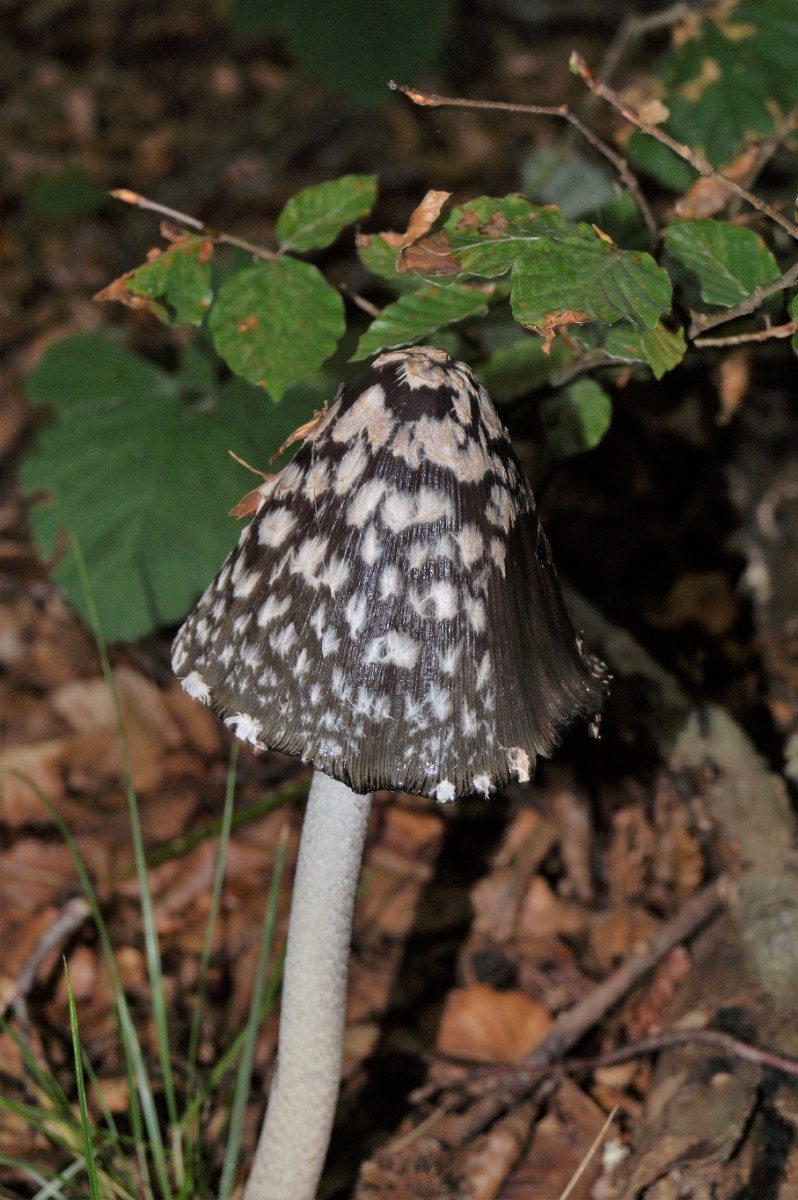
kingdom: Fungi
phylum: Basidiomycota
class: Agaricomycetes
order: Agaricales
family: Psathyrellaceae
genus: Coprinopsis
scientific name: Coprinopsis picacea
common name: skade-blækhat
